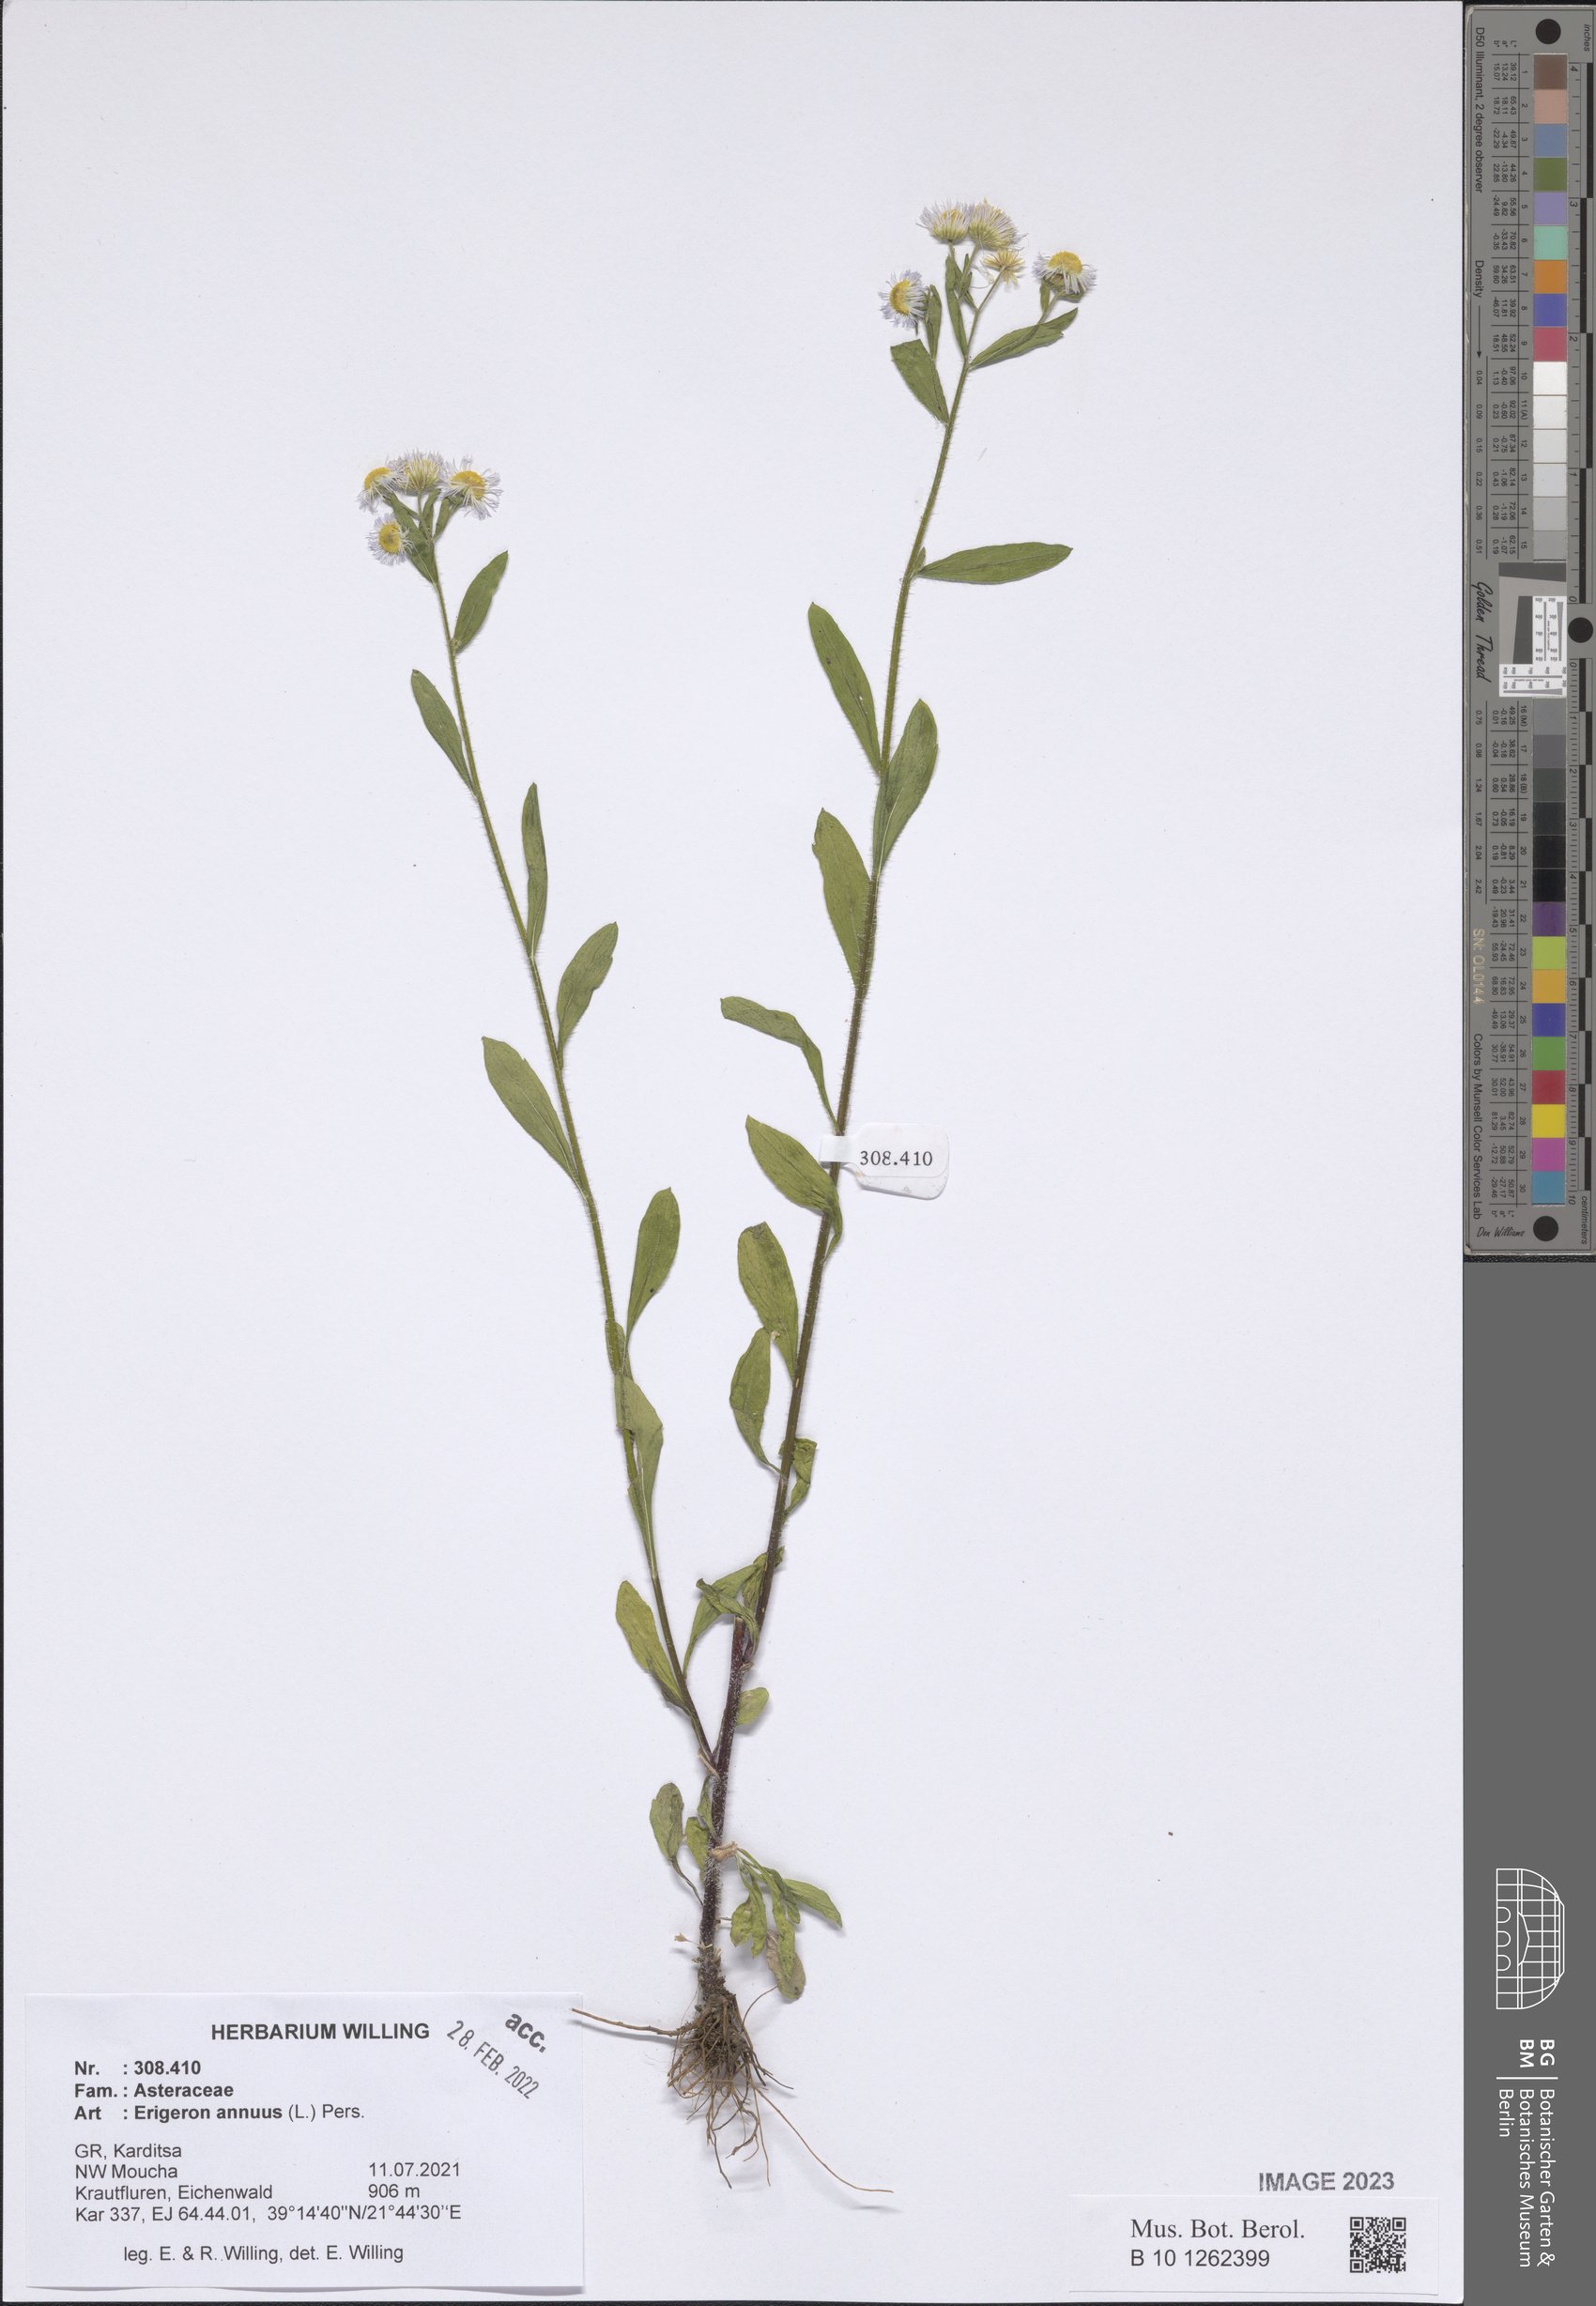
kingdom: Plantae
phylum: Tracheophyta
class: Magnoliopsida
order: Asterales
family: Asteraceae
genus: Erigeron
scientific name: Erigeron annuus
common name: Tall fleabane
